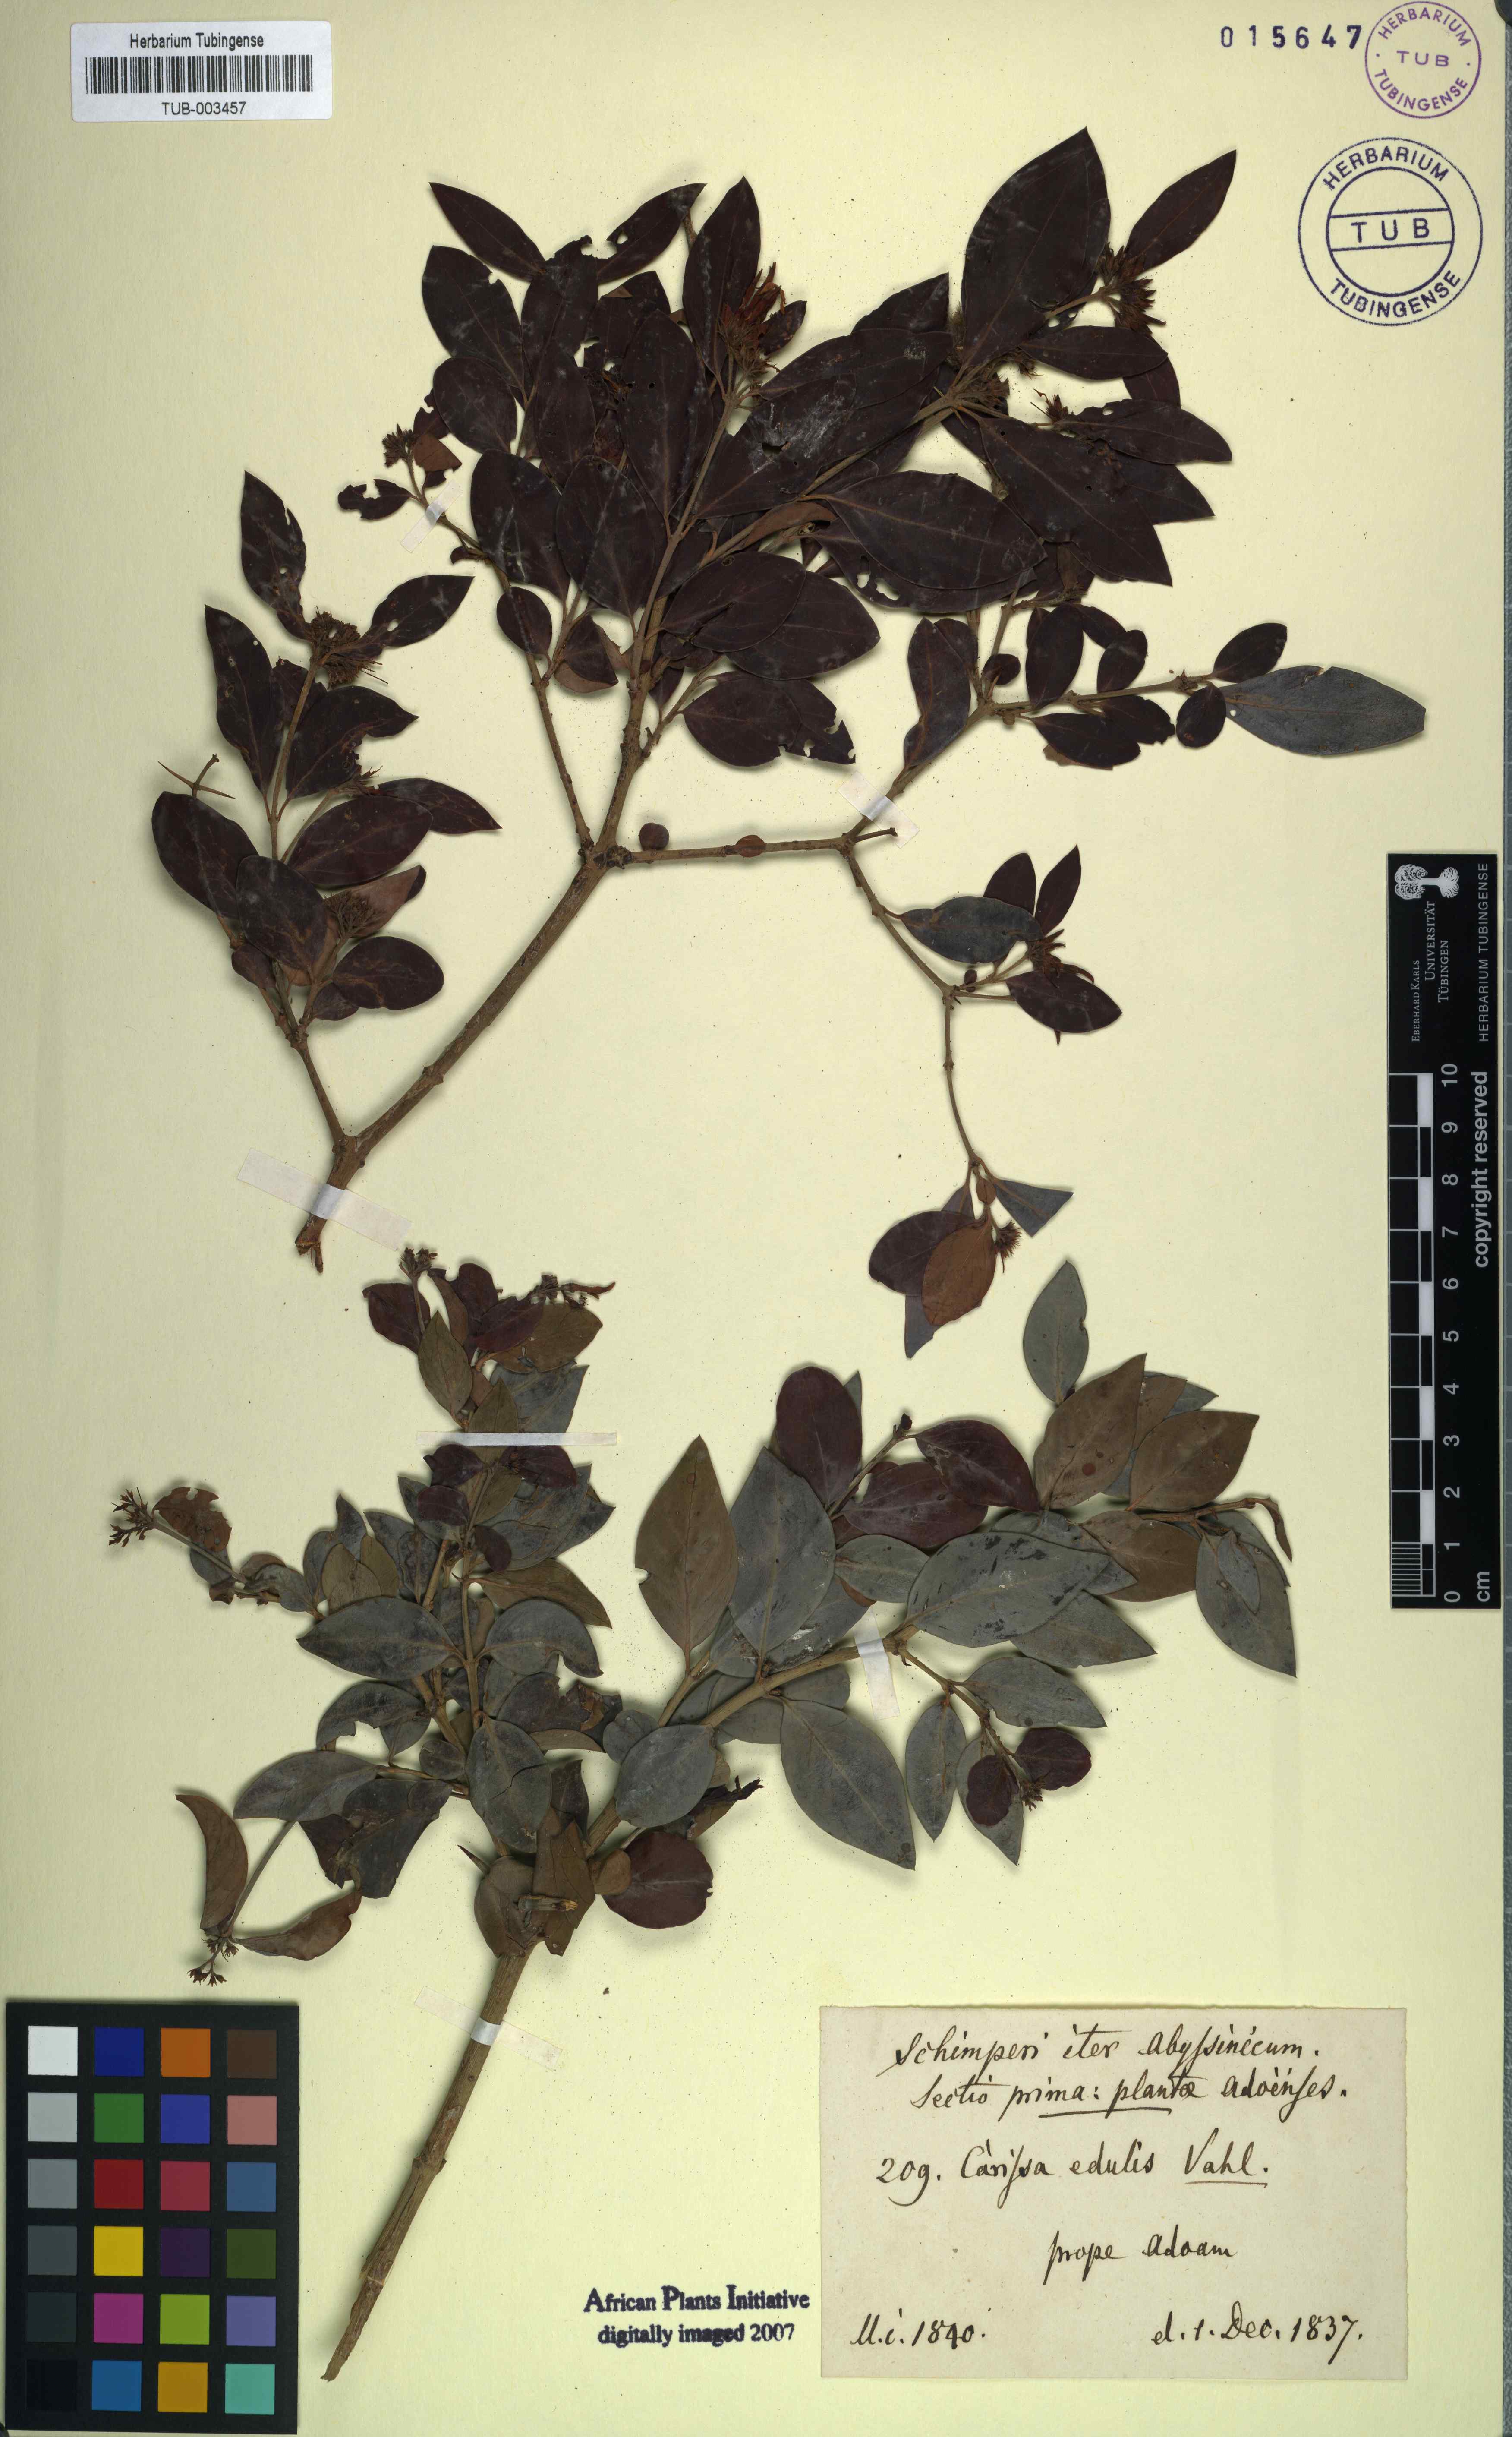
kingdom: Plantae
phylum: Tracheophyta
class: Magnoliopsida
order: Gentianales
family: Apocynaceae
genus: Carissa
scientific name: Carissa spinarum
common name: Egyptian carissa
